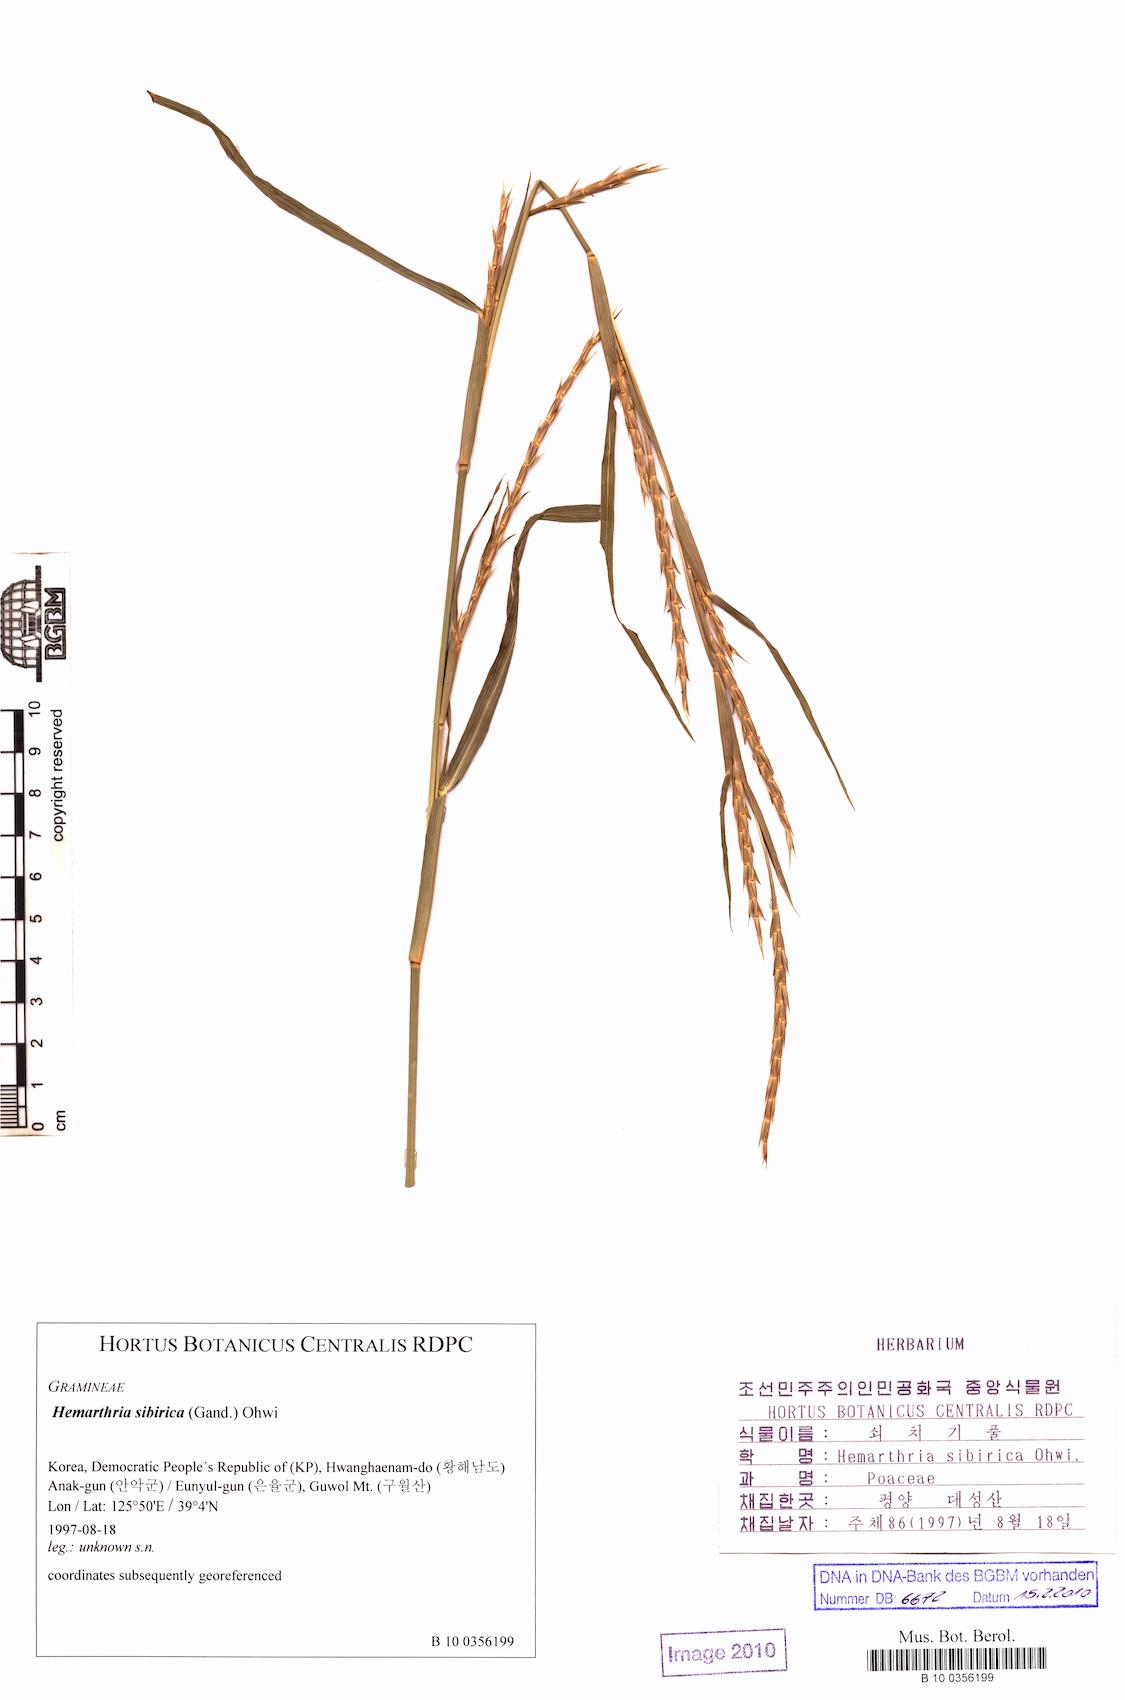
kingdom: Plantae
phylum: Tracheophyta
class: Liliopsida
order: Poales
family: Poaceae
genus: Hemarthria
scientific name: Hemarthria sibirica
